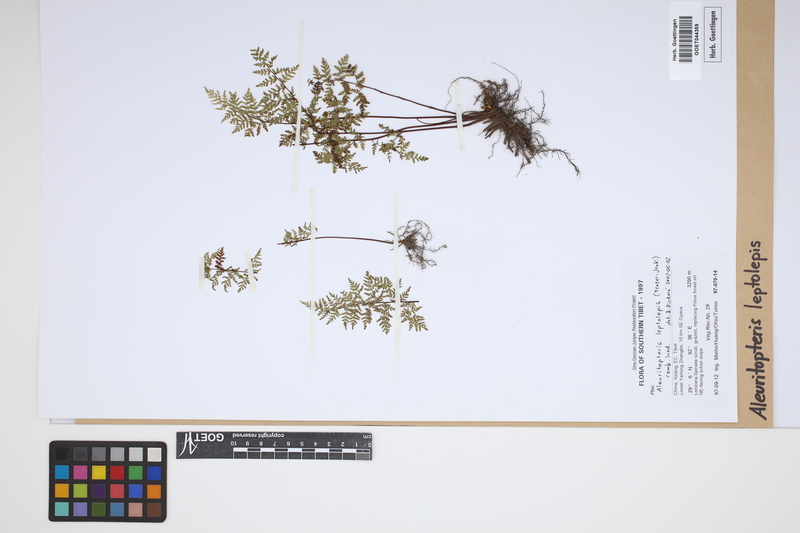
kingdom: Plantae
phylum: Tracheophyta
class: Polypodiopsida
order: Polypodiales
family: Pteridaceae
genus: Aleuritopteris
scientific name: Aleuritopteris leptolepis
